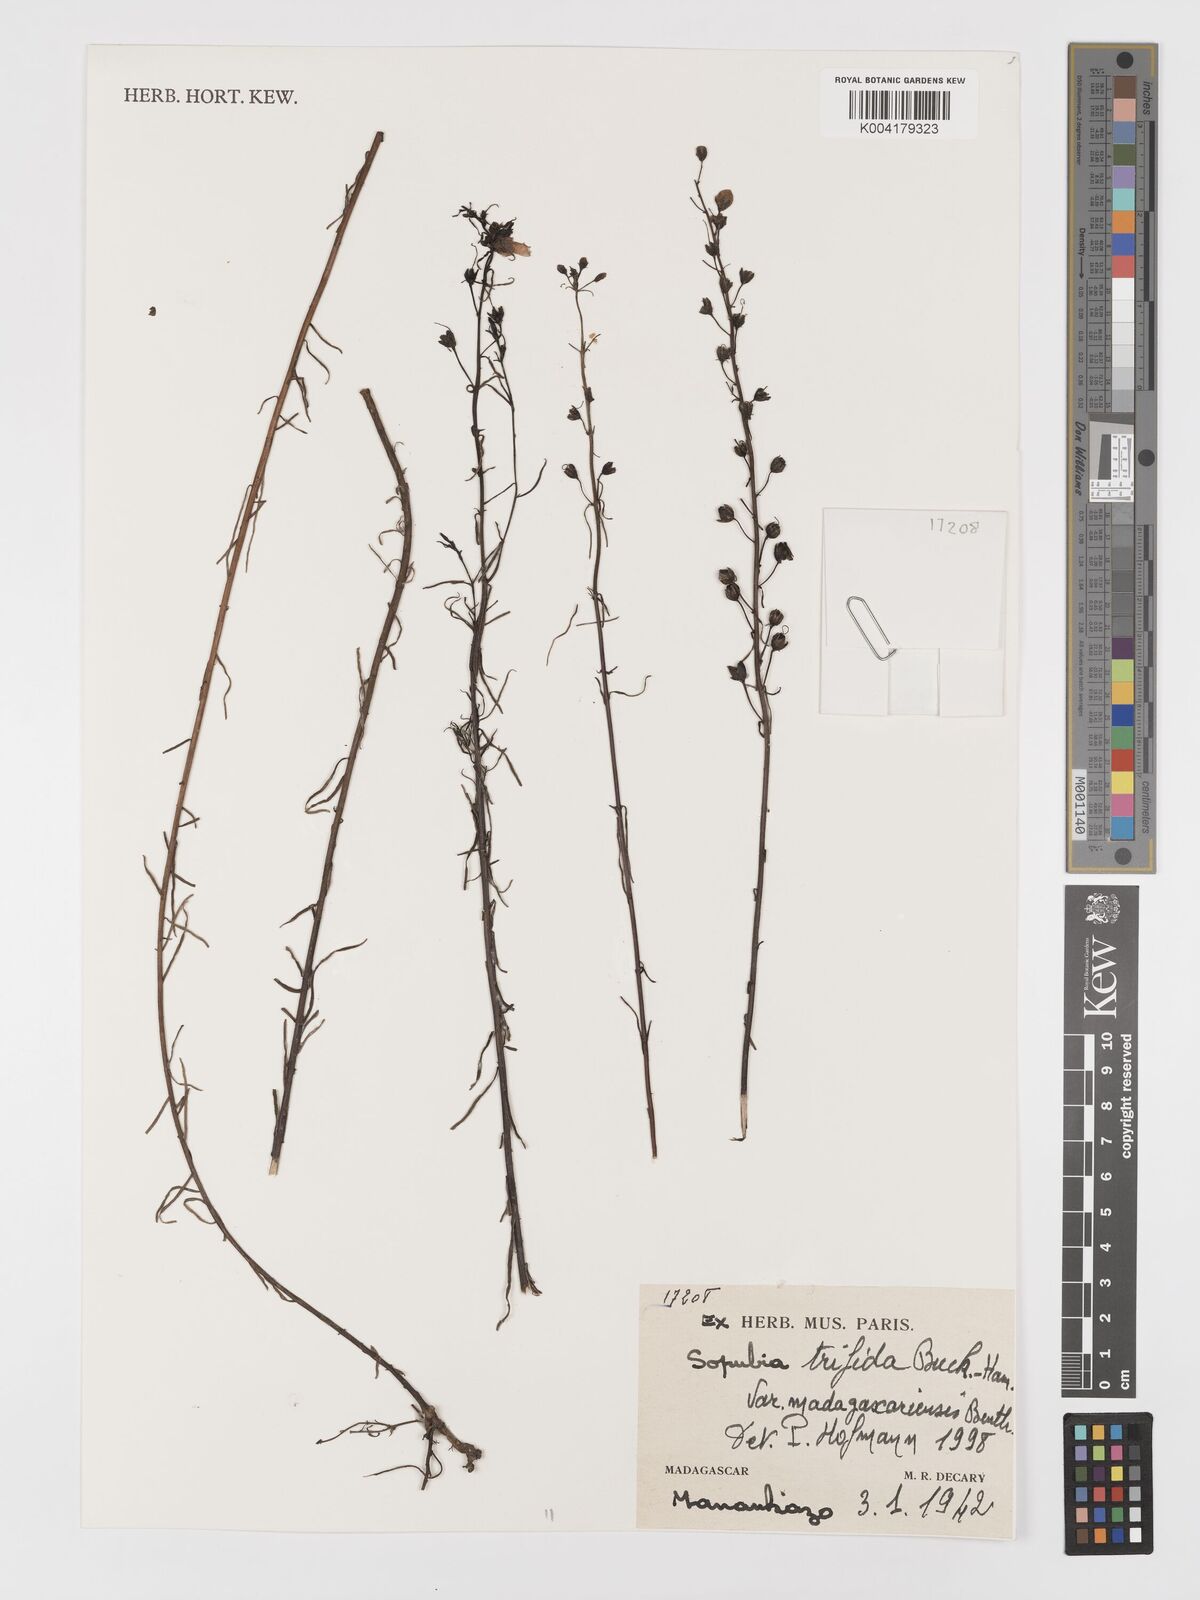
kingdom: Plantae
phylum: Tracheophyta
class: Magnoliopsida
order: Lamiales
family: Orobanchaceae
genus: Sopubia
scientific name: Sopubia trifida
